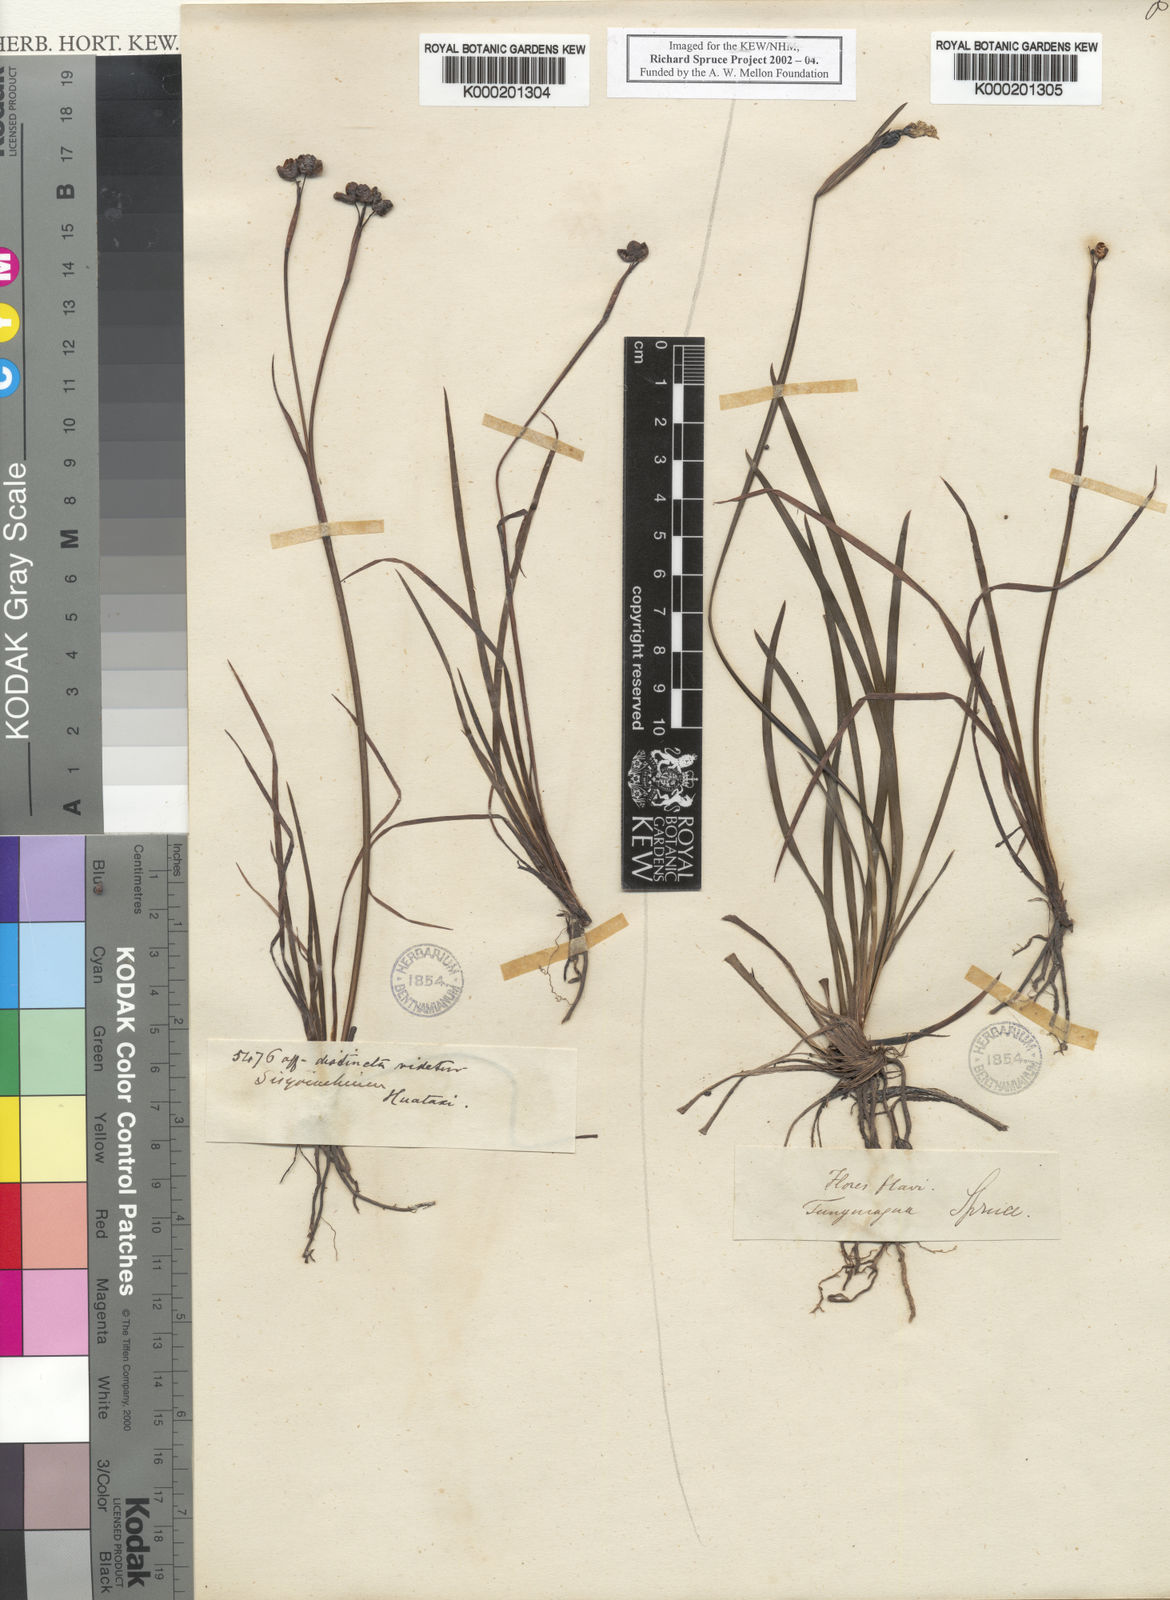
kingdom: Plantae
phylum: Tracheophyta
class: Liliopsida
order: Asparagales
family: Iridaceae
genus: Sisyrinchium
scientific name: Sisyrinchium tinctorium
